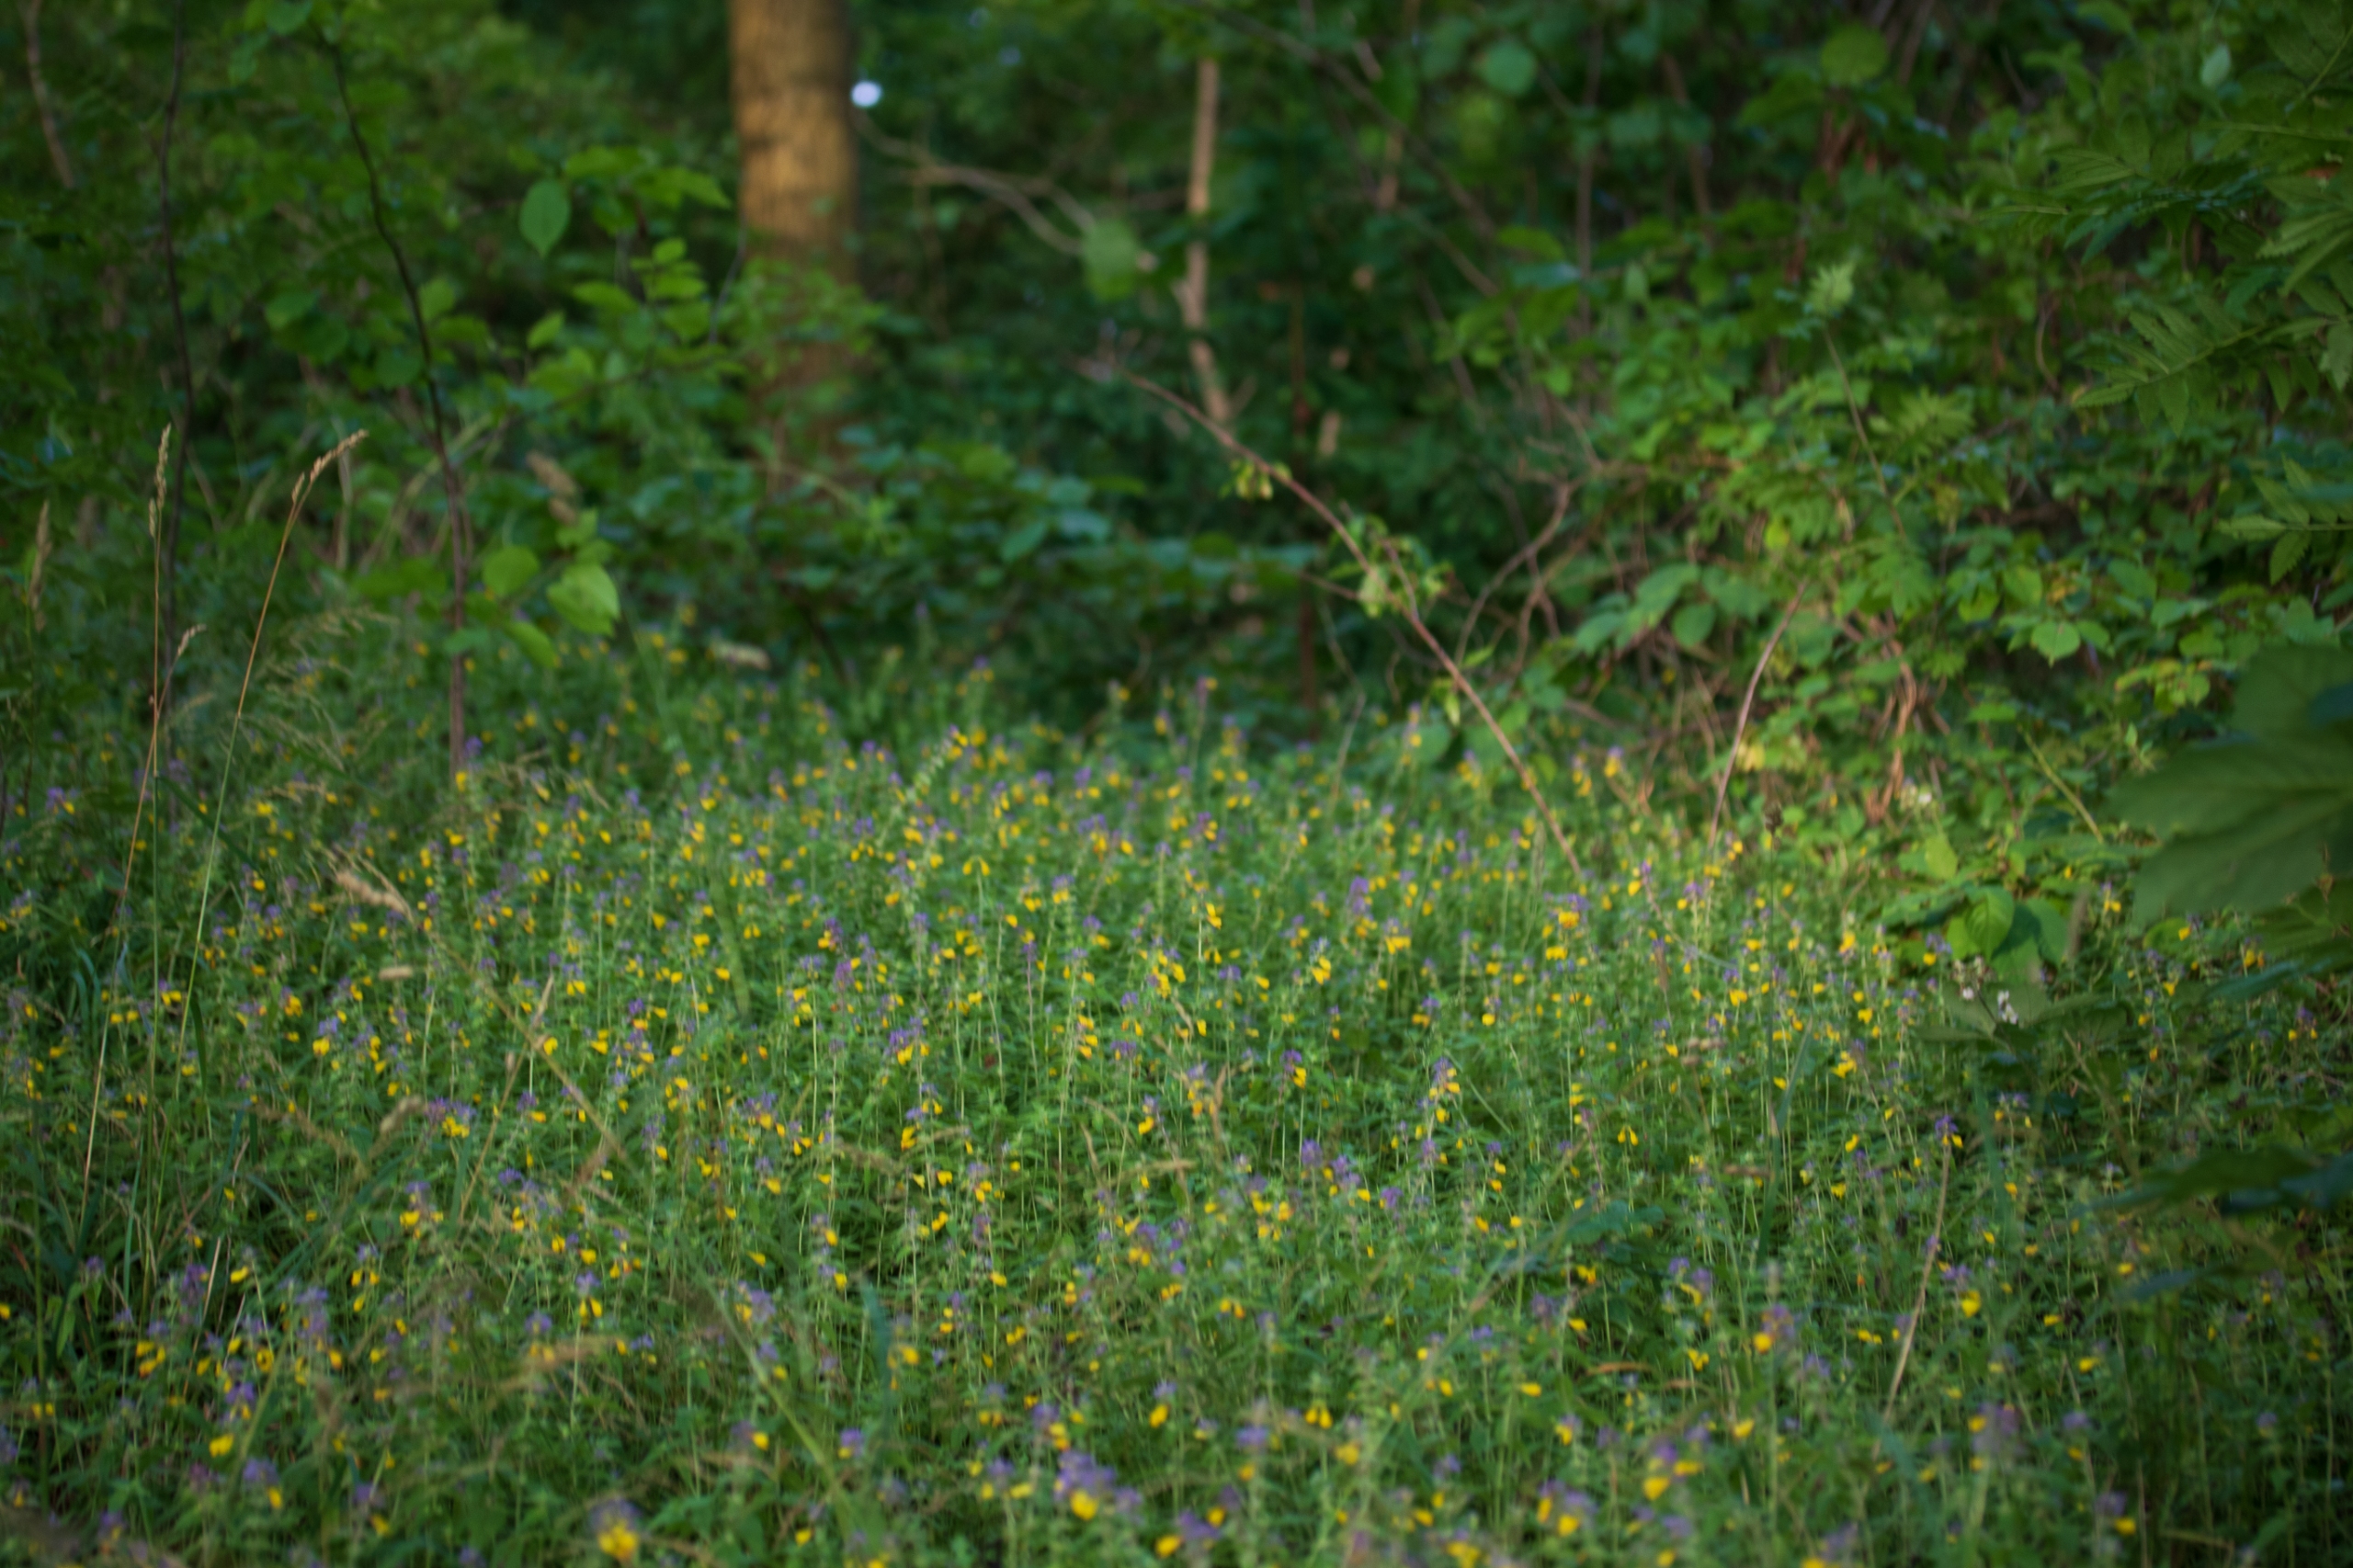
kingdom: Plantae
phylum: Tracheophyta
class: Magnoliopsida
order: Lamiales
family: Orobanchaceae
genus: Melampyrum
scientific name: Melampyrum nemorosum
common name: Blåtoppet kohvede
